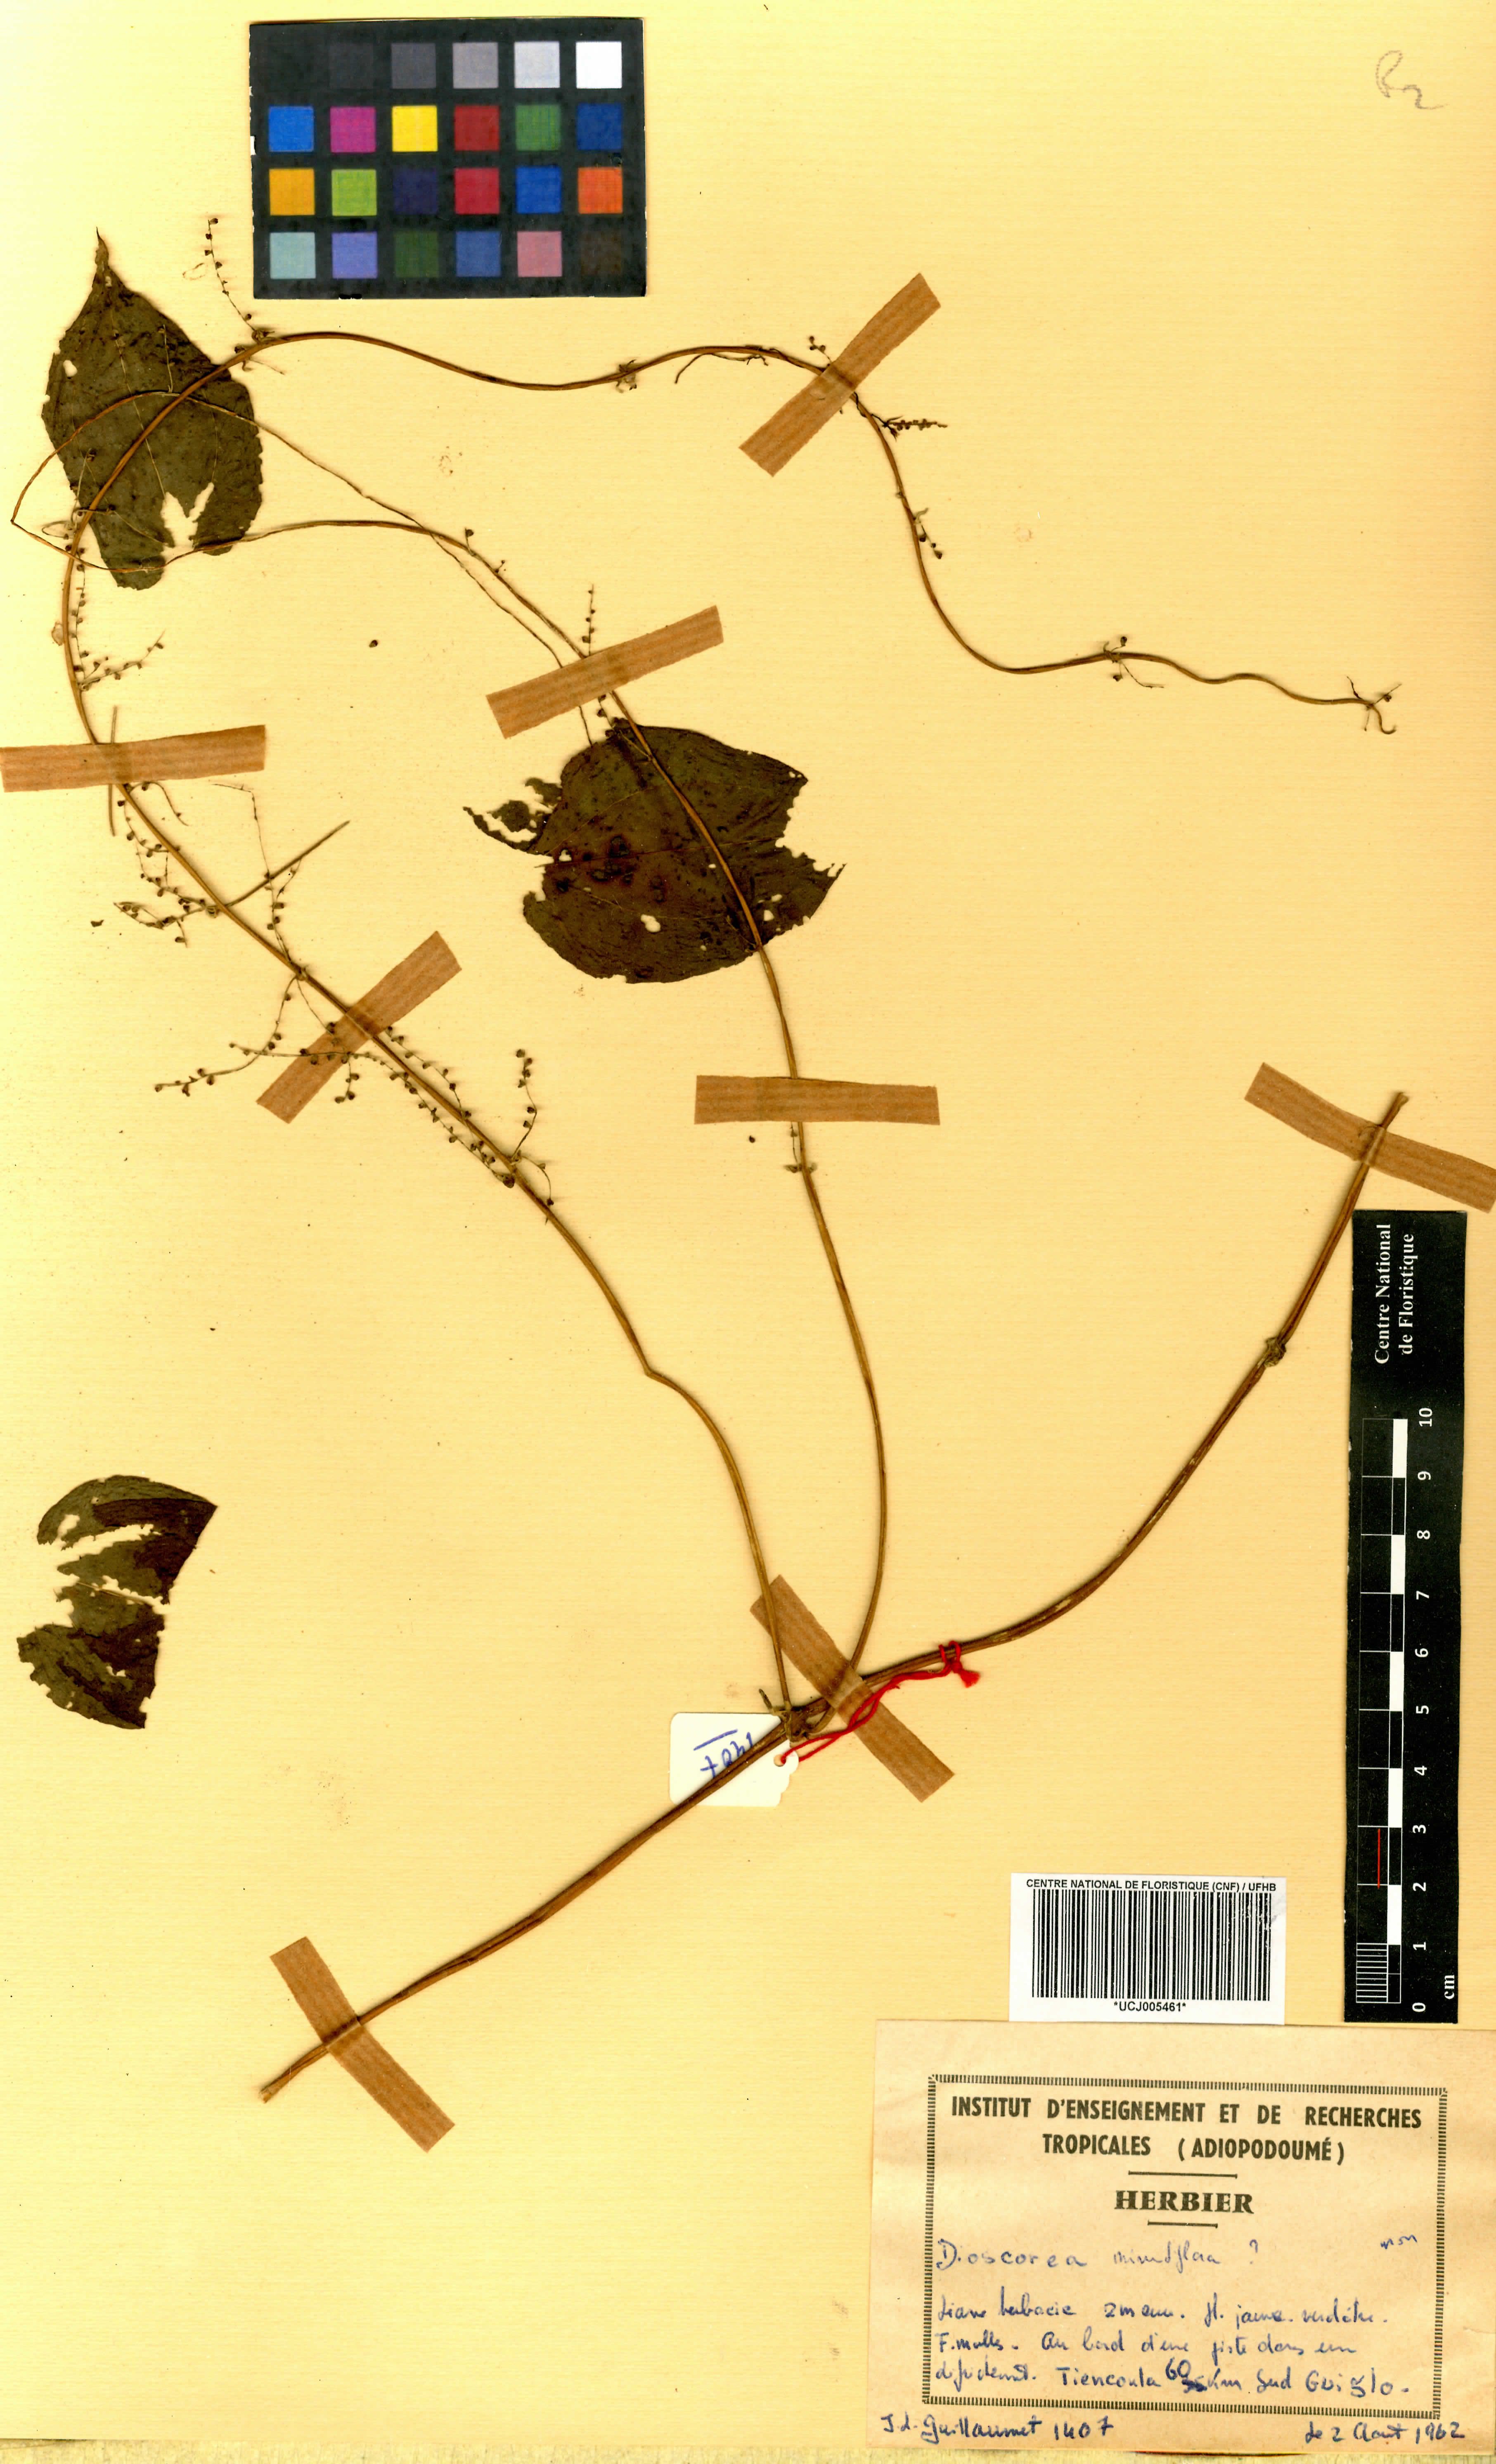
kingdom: Plantae
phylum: Tracheophyta
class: Liliopsida
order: Dioscoreales
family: Dioscoreaceae
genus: Dioscorea
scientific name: Dioscorea minutiflora
